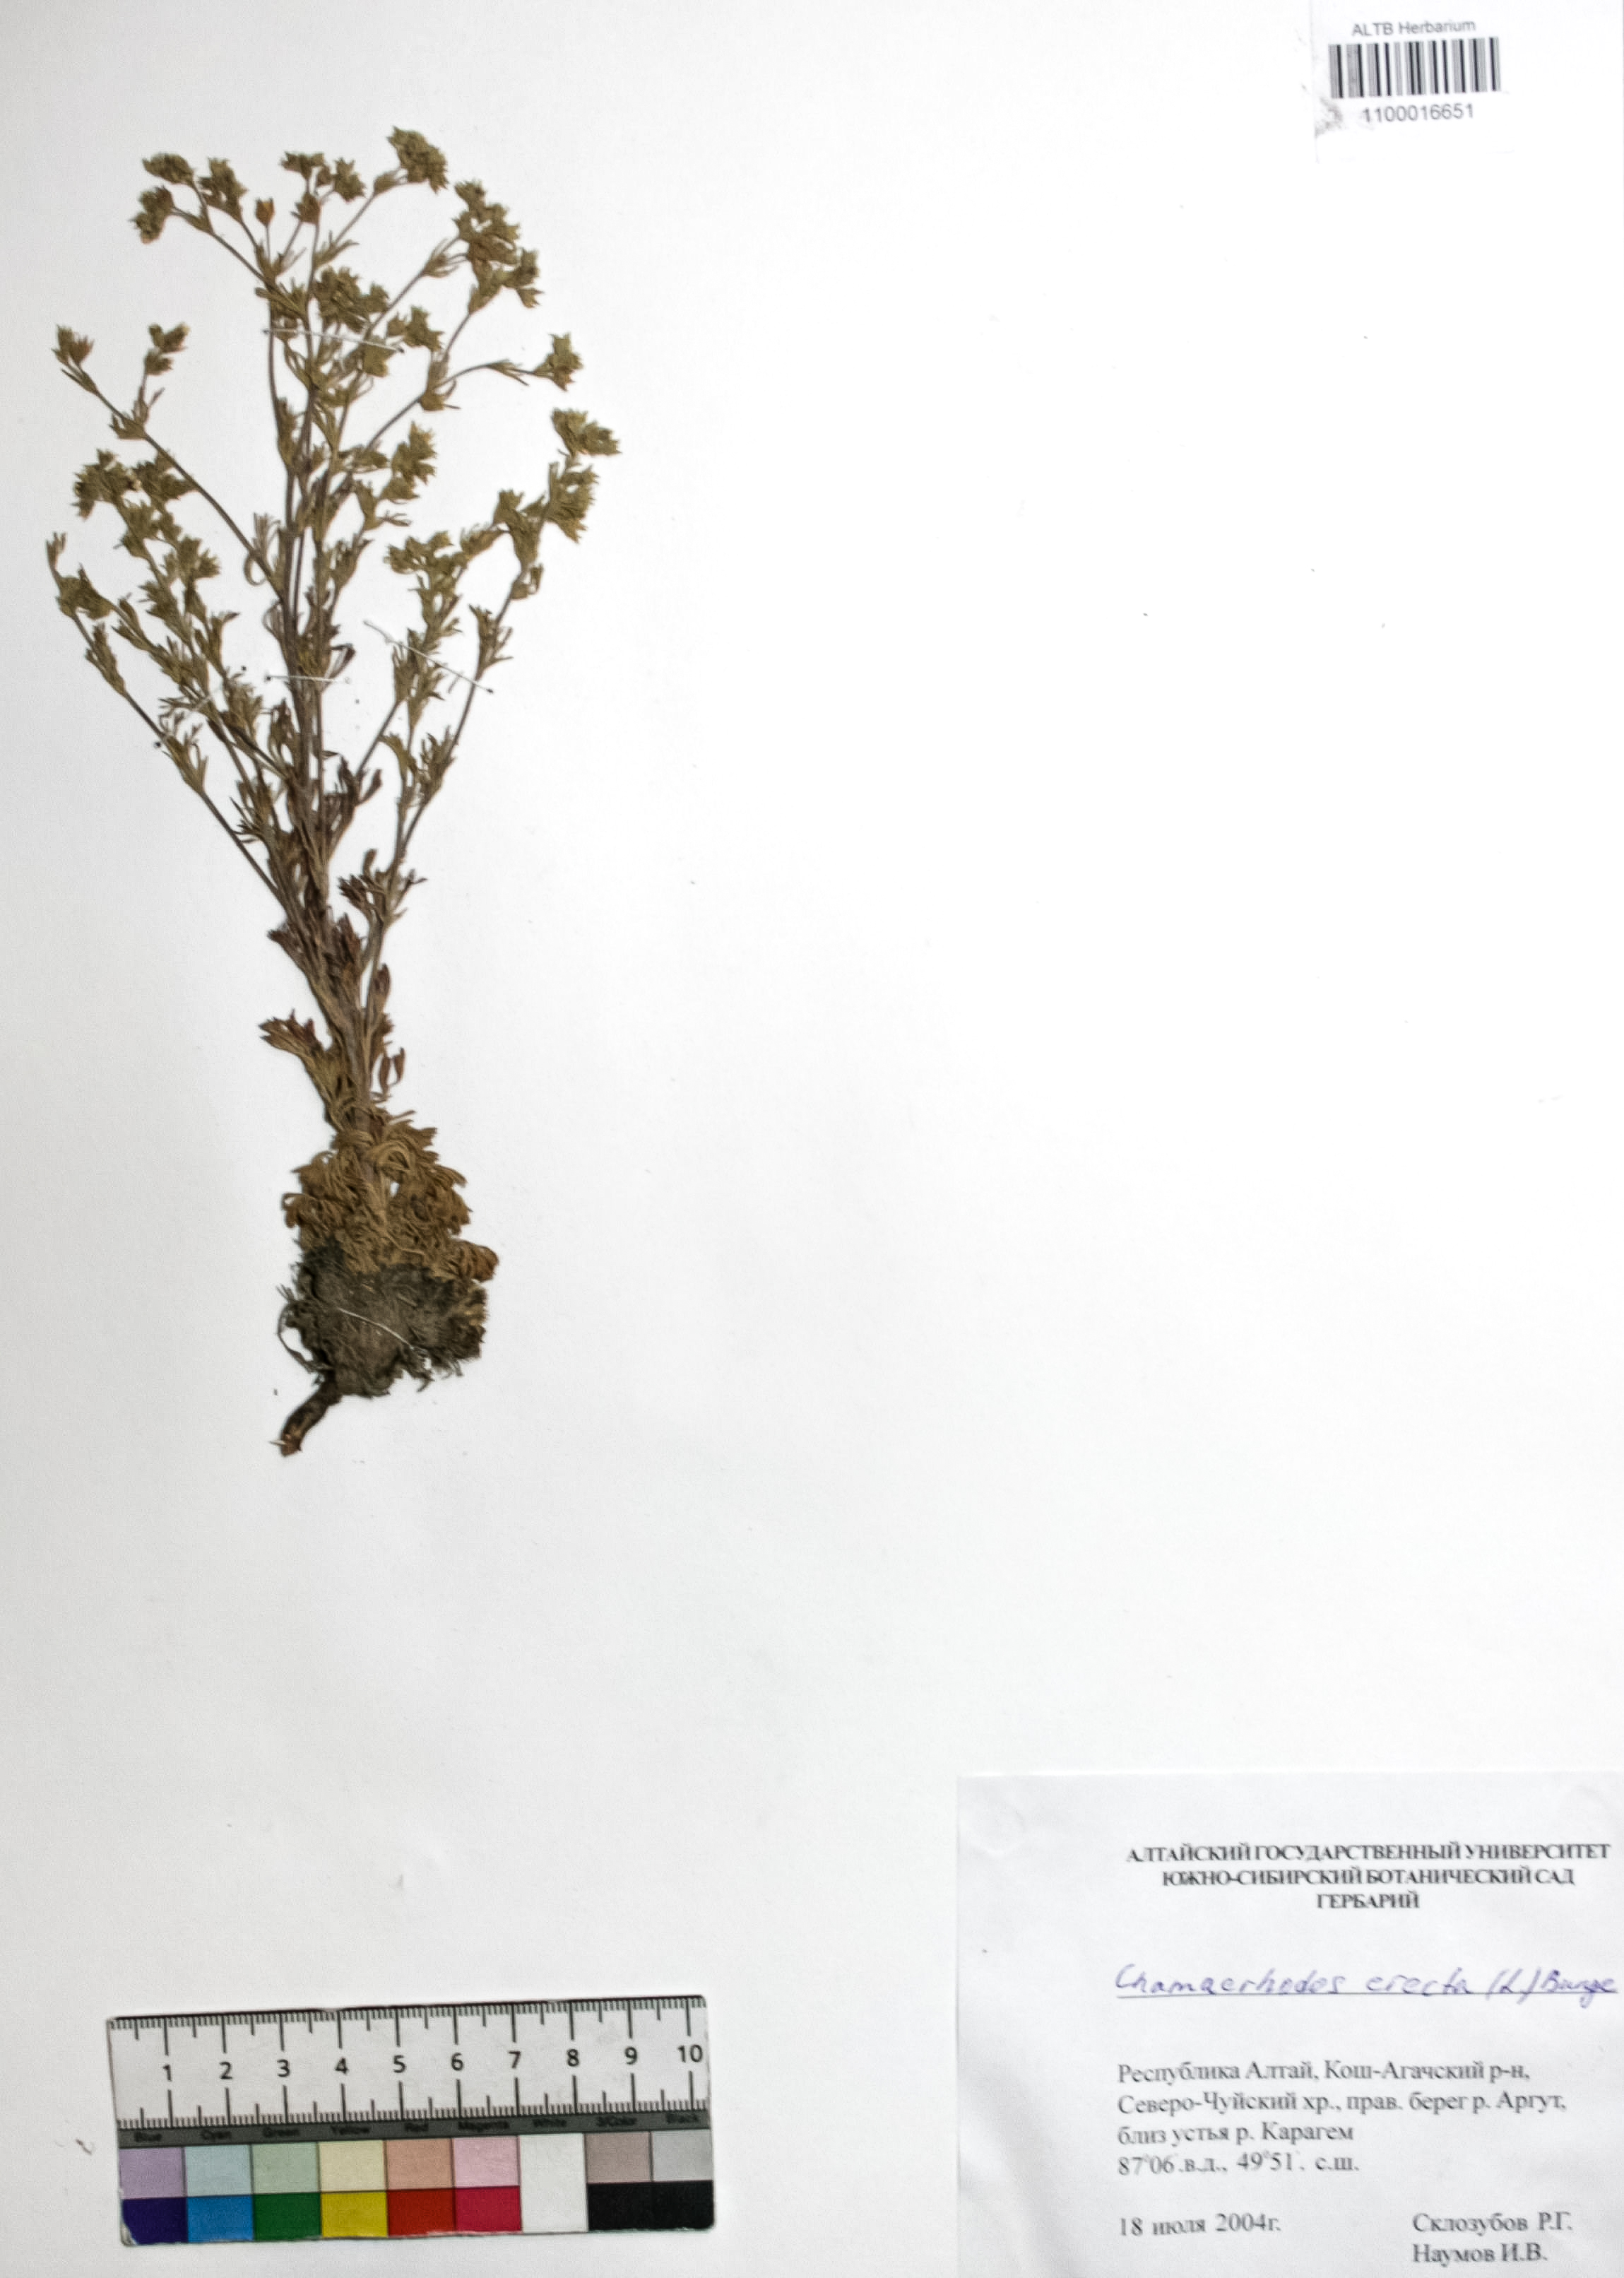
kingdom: Plantae
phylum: Tracheophyta
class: Magnoliopsida
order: Rosales
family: Rosaceae
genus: Chamaerhodos
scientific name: Chamaerhodos erecta
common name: American chamaerhodos
